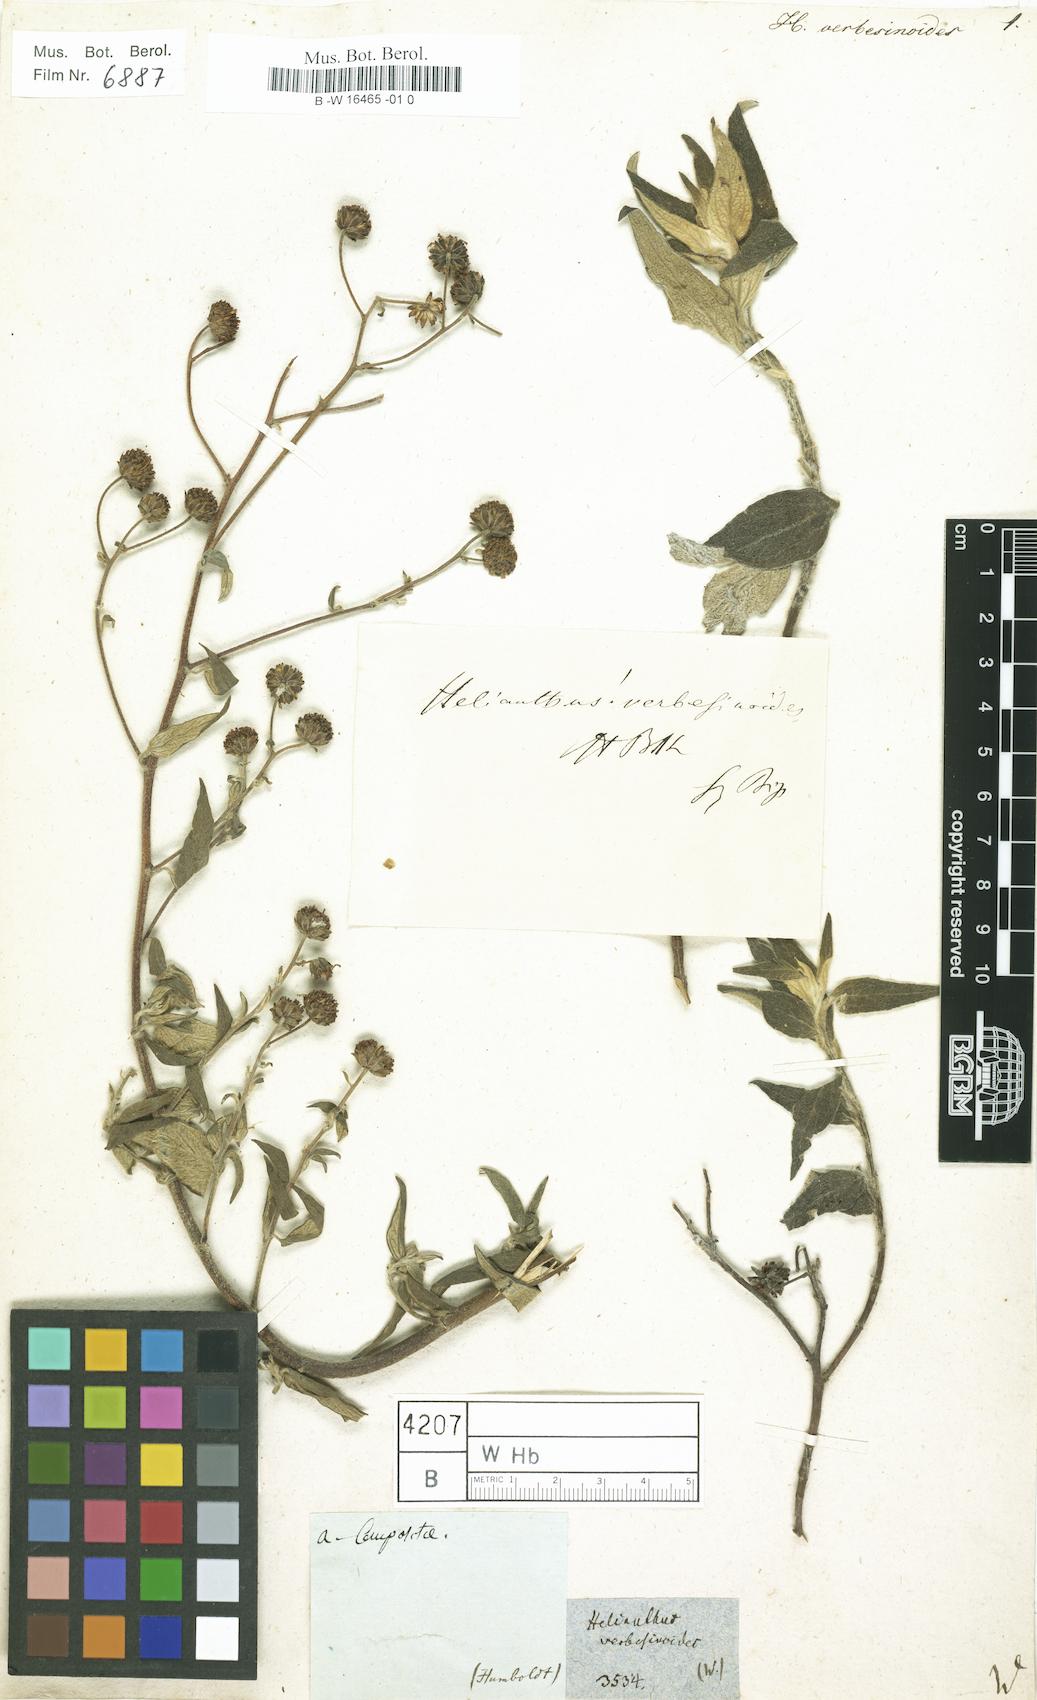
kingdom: Plantae
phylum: Tracheophyta
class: Magnoliopsida
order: Asterales
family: Asteraceae
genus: Pappobolus
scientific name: Pappobolus verbesinoides
